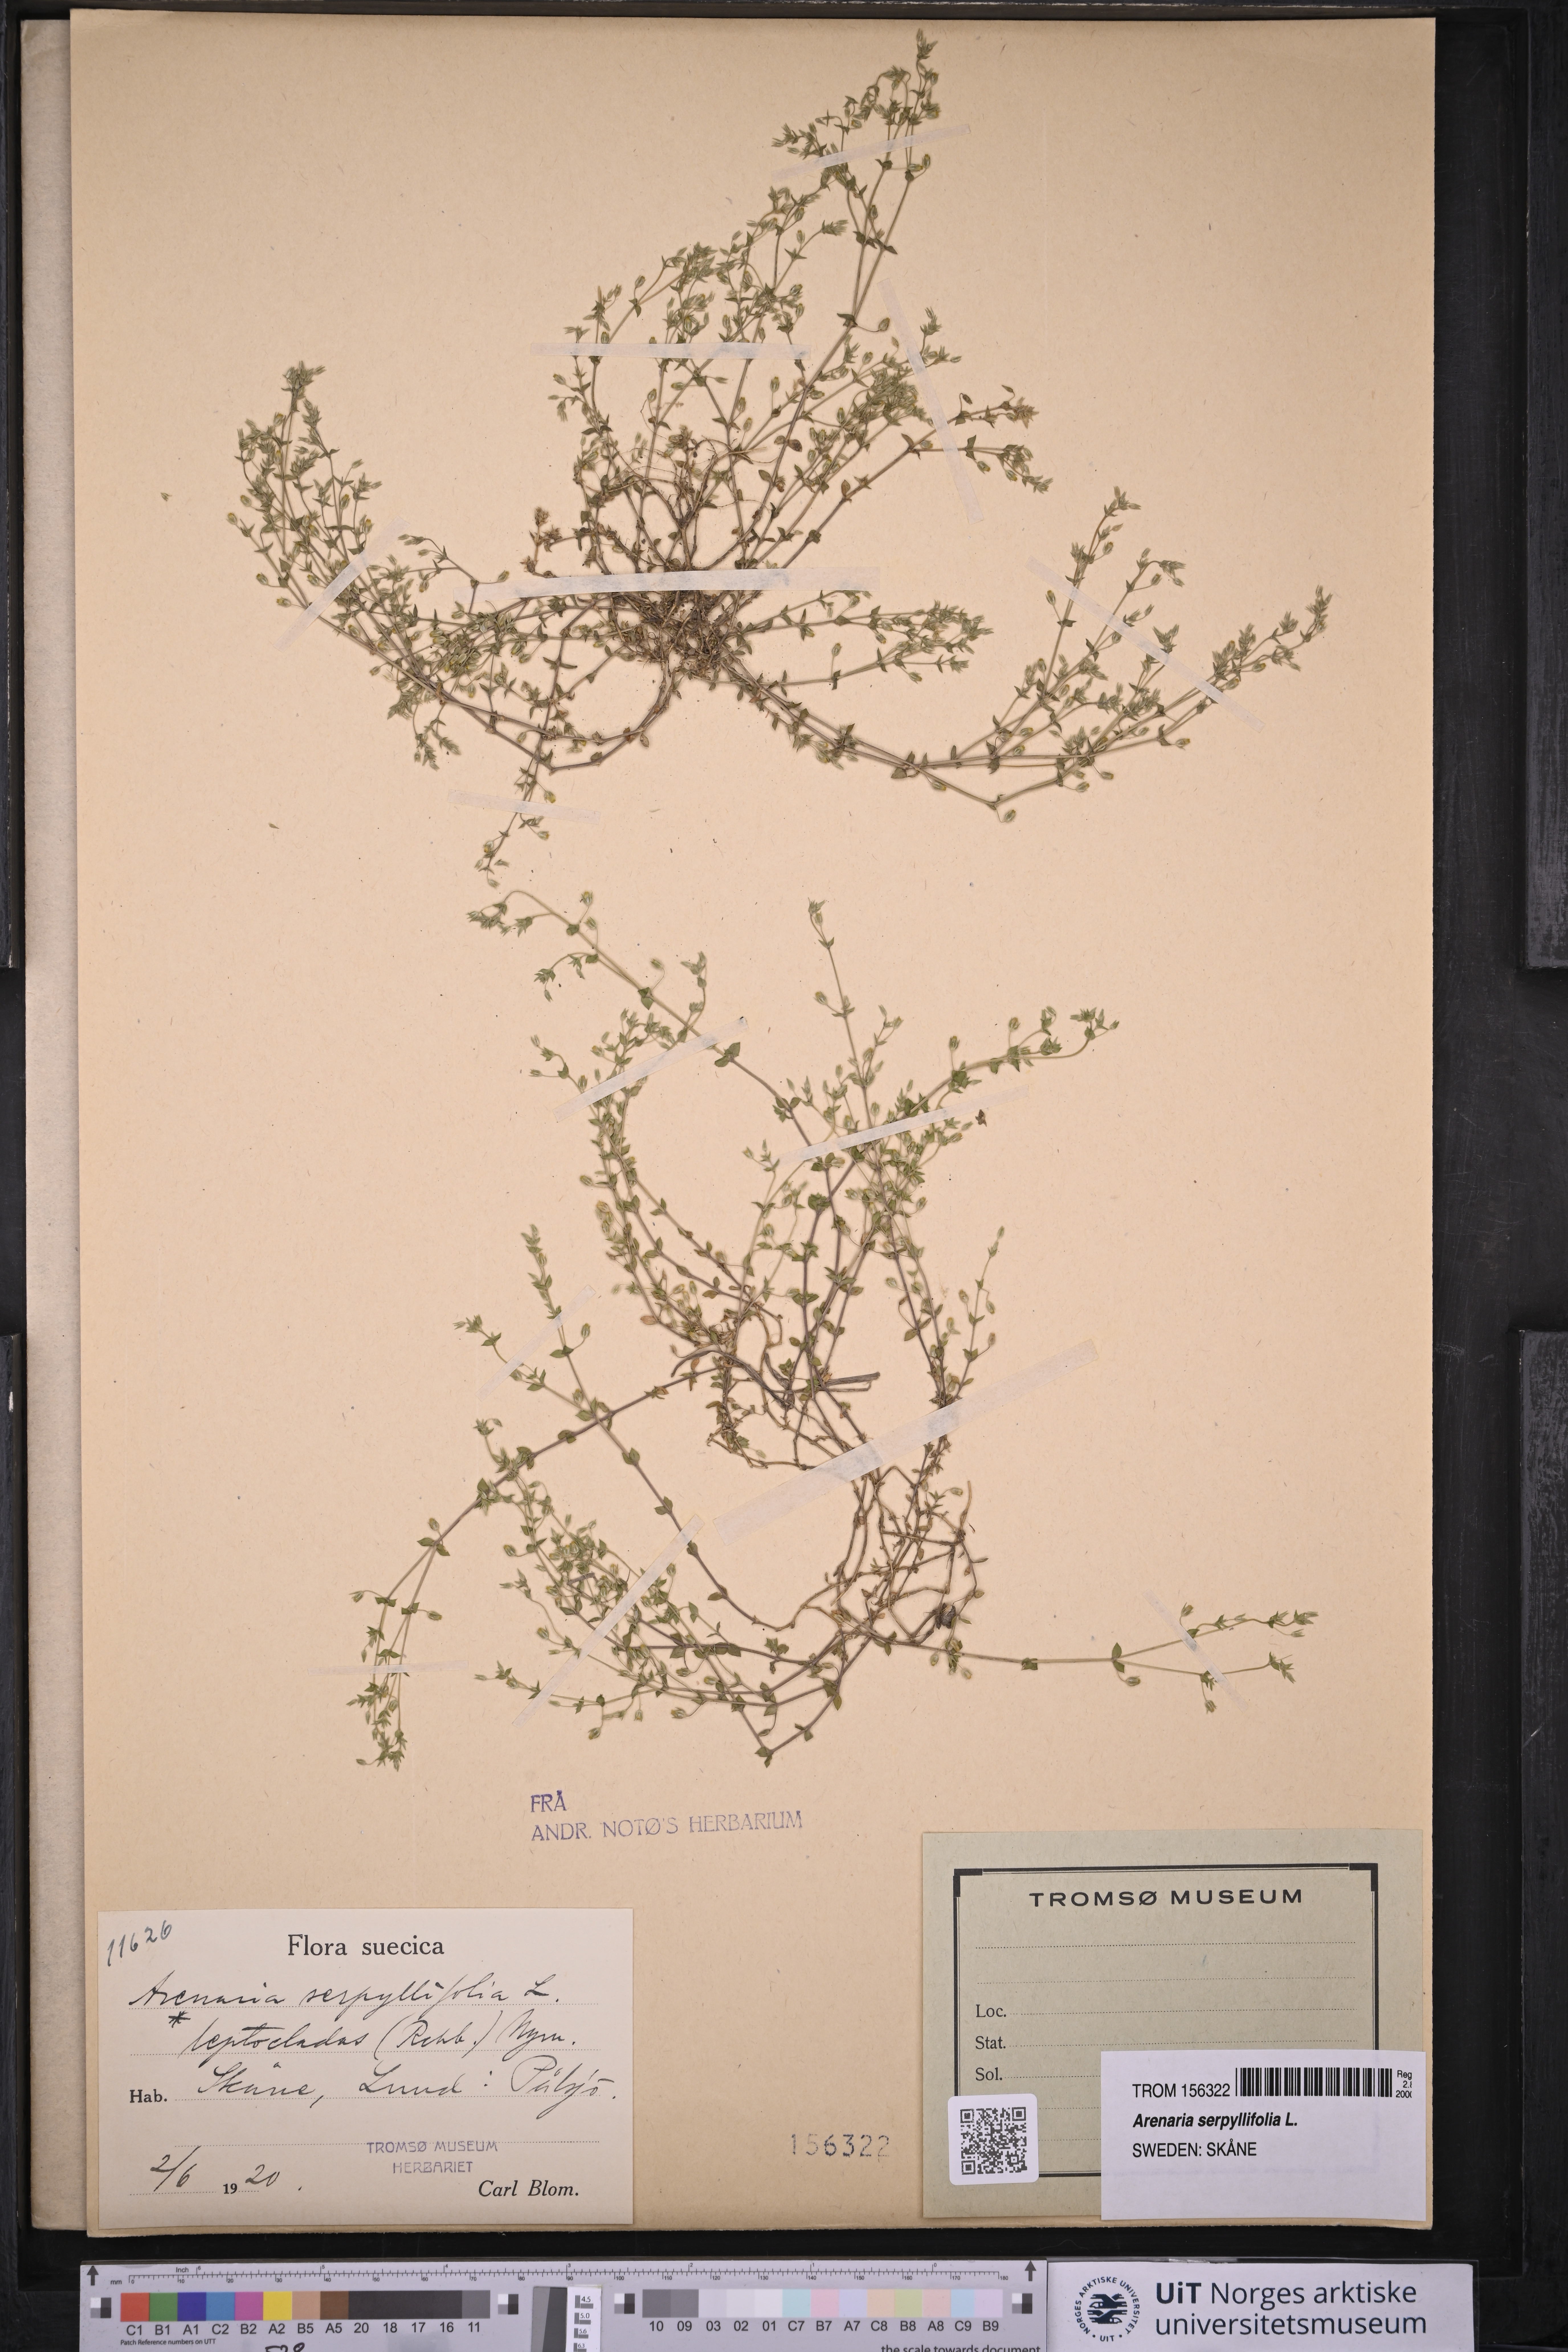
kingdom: Plantae
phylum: Tracheophyta
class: Magnoliopsida
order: Caryophyllales
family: Caryophyllaceae
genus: Arenaria
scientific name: Arenaria serpyllifolia
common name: Thyme-leaved sandwort
